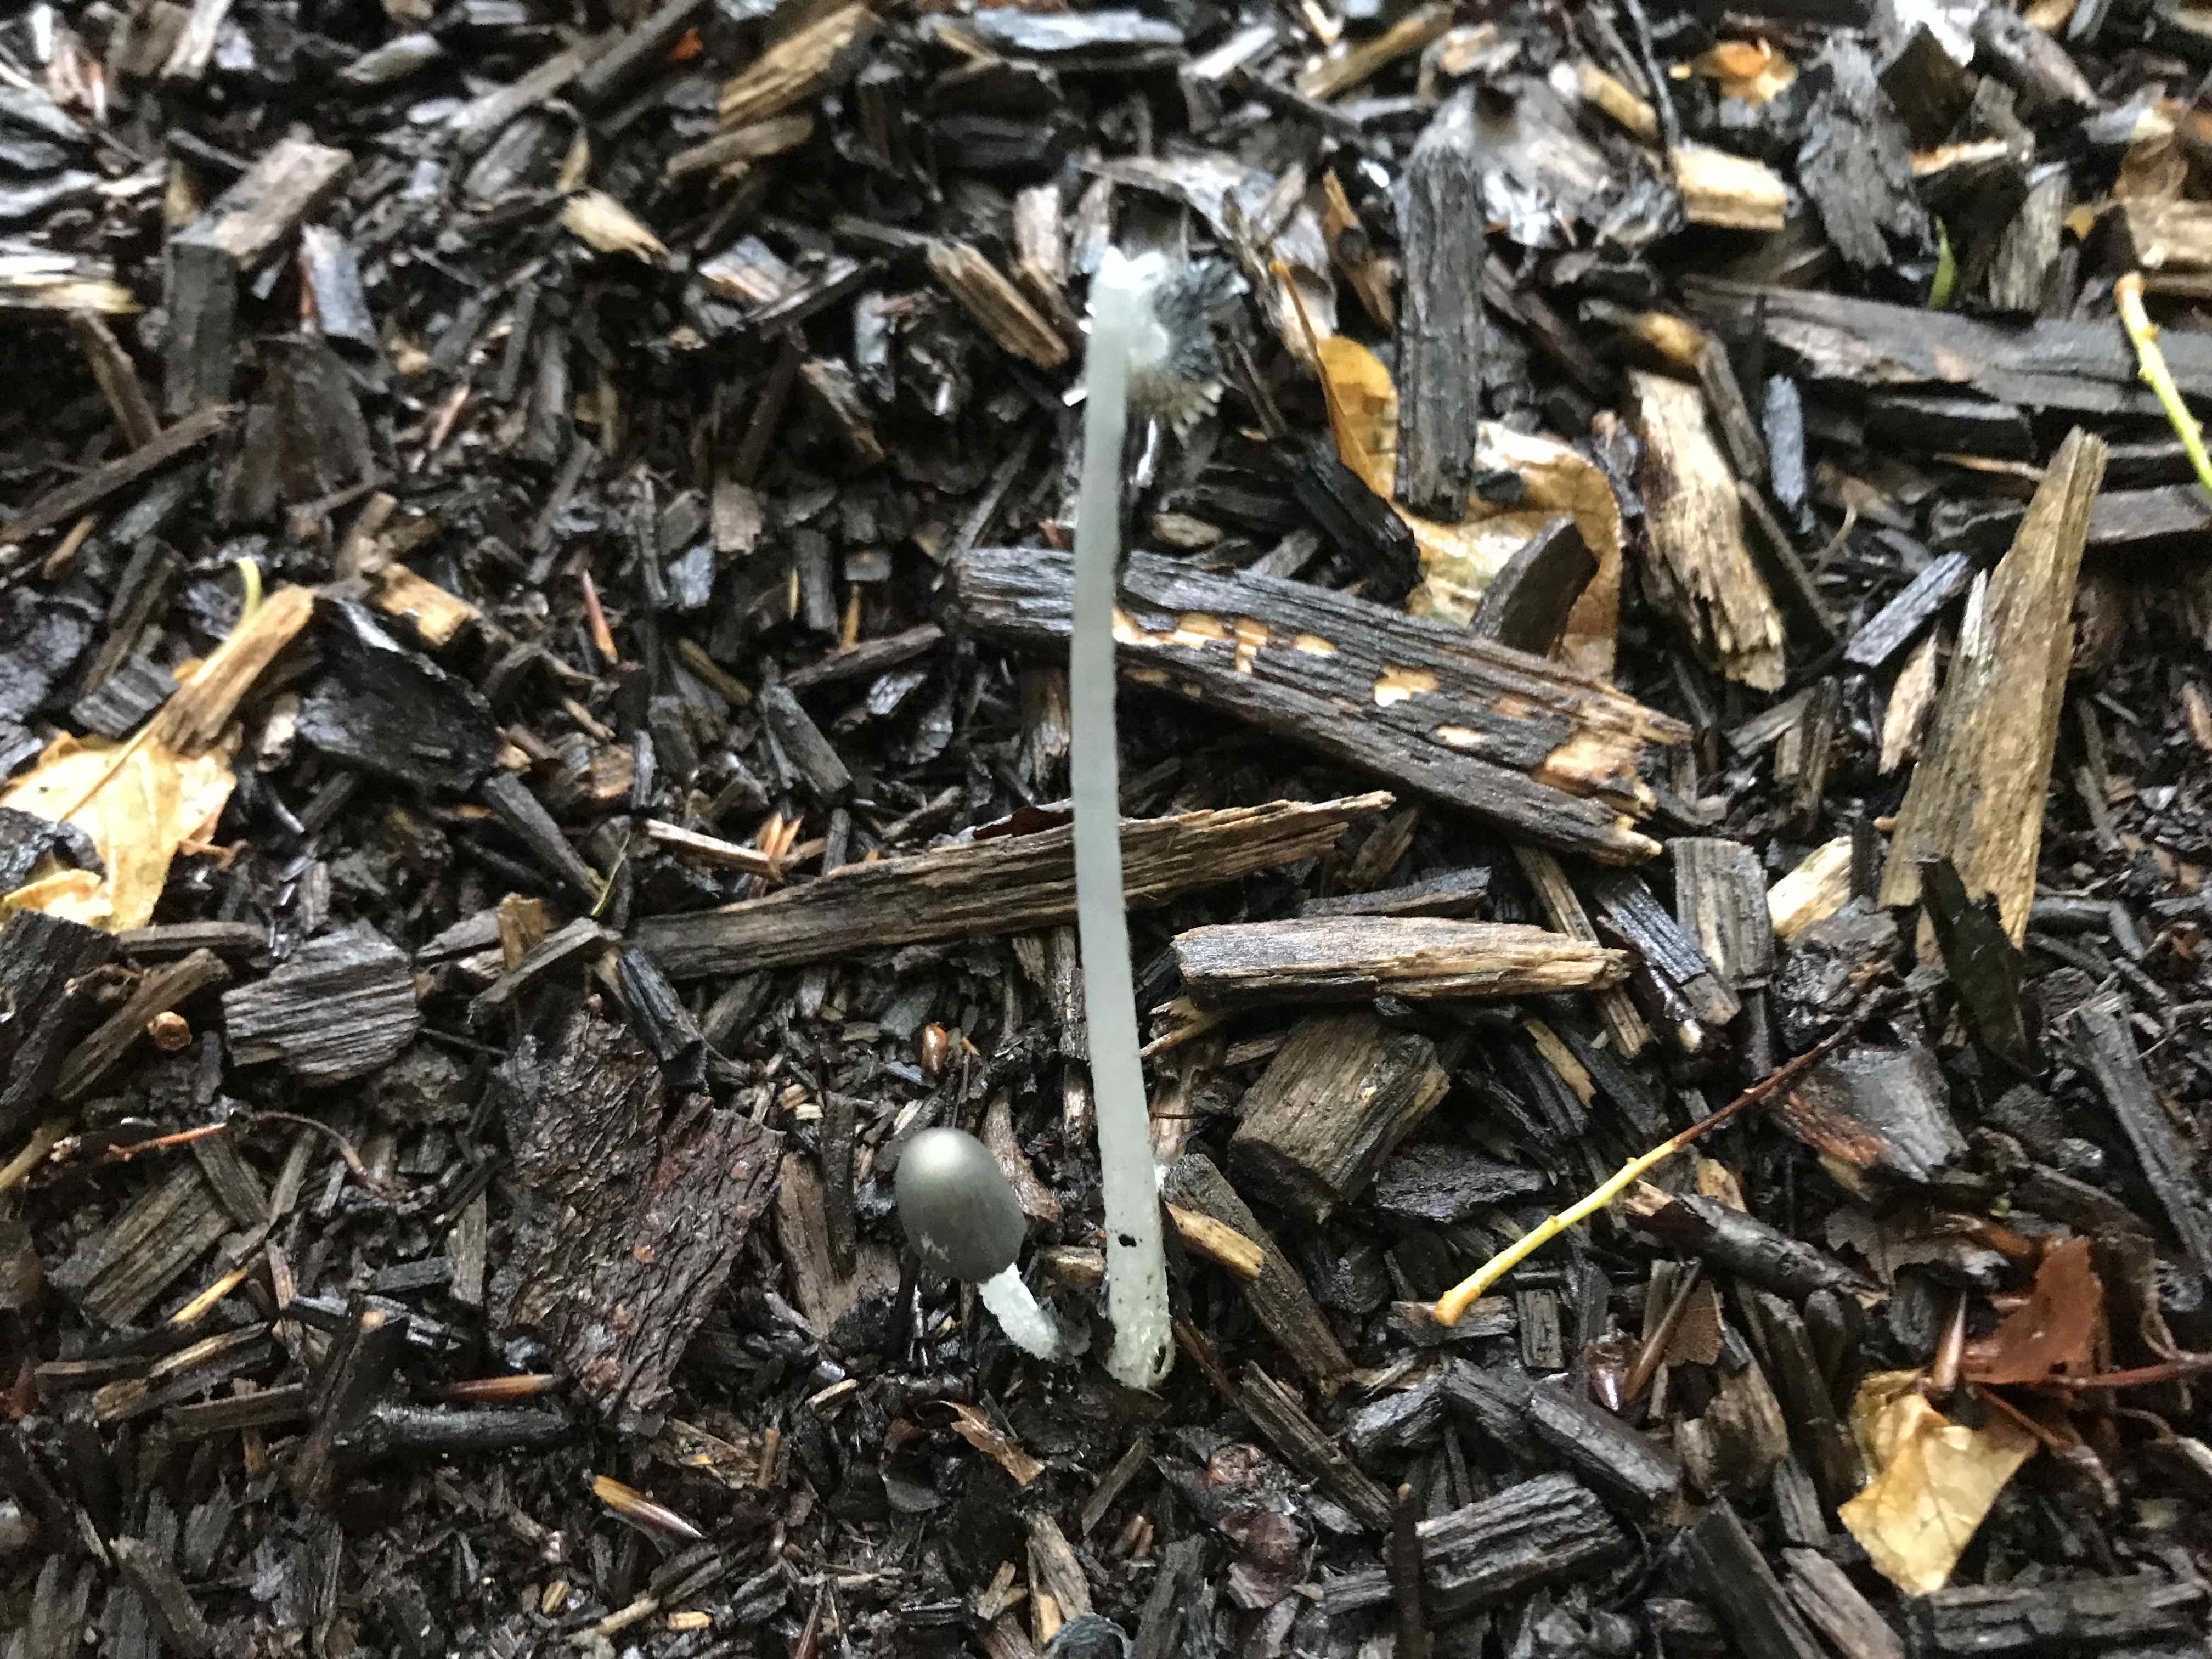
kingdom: Fungi
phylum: Basidiomycota
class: Agaricomycetes
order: Agaricales
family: Psathyrellaceae
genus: Coprinopsis
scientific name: Coprinopsis lagopus
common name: dunstokket blækhat
